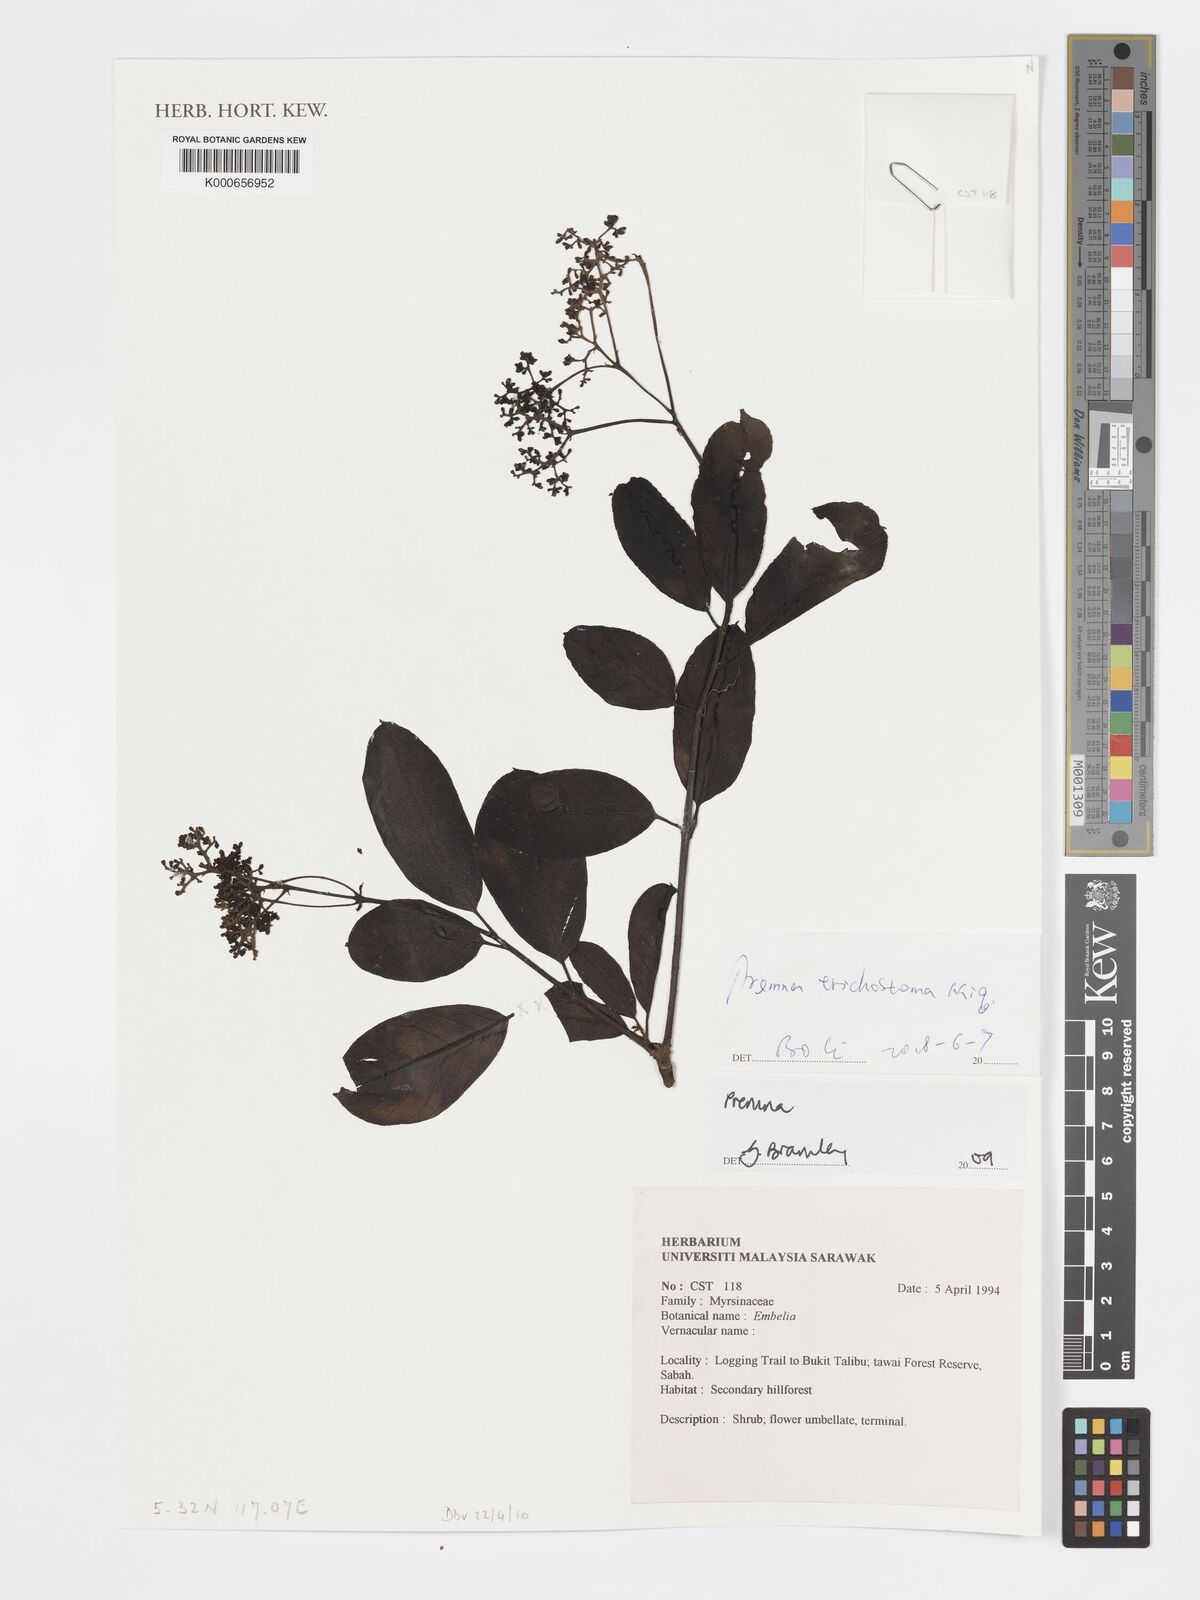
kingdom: Plantae
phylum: Tracheophyta
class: Magnoliopsida
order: Lamiales
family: Lamiaceae
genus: Premna
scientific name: Premna tomentosa
